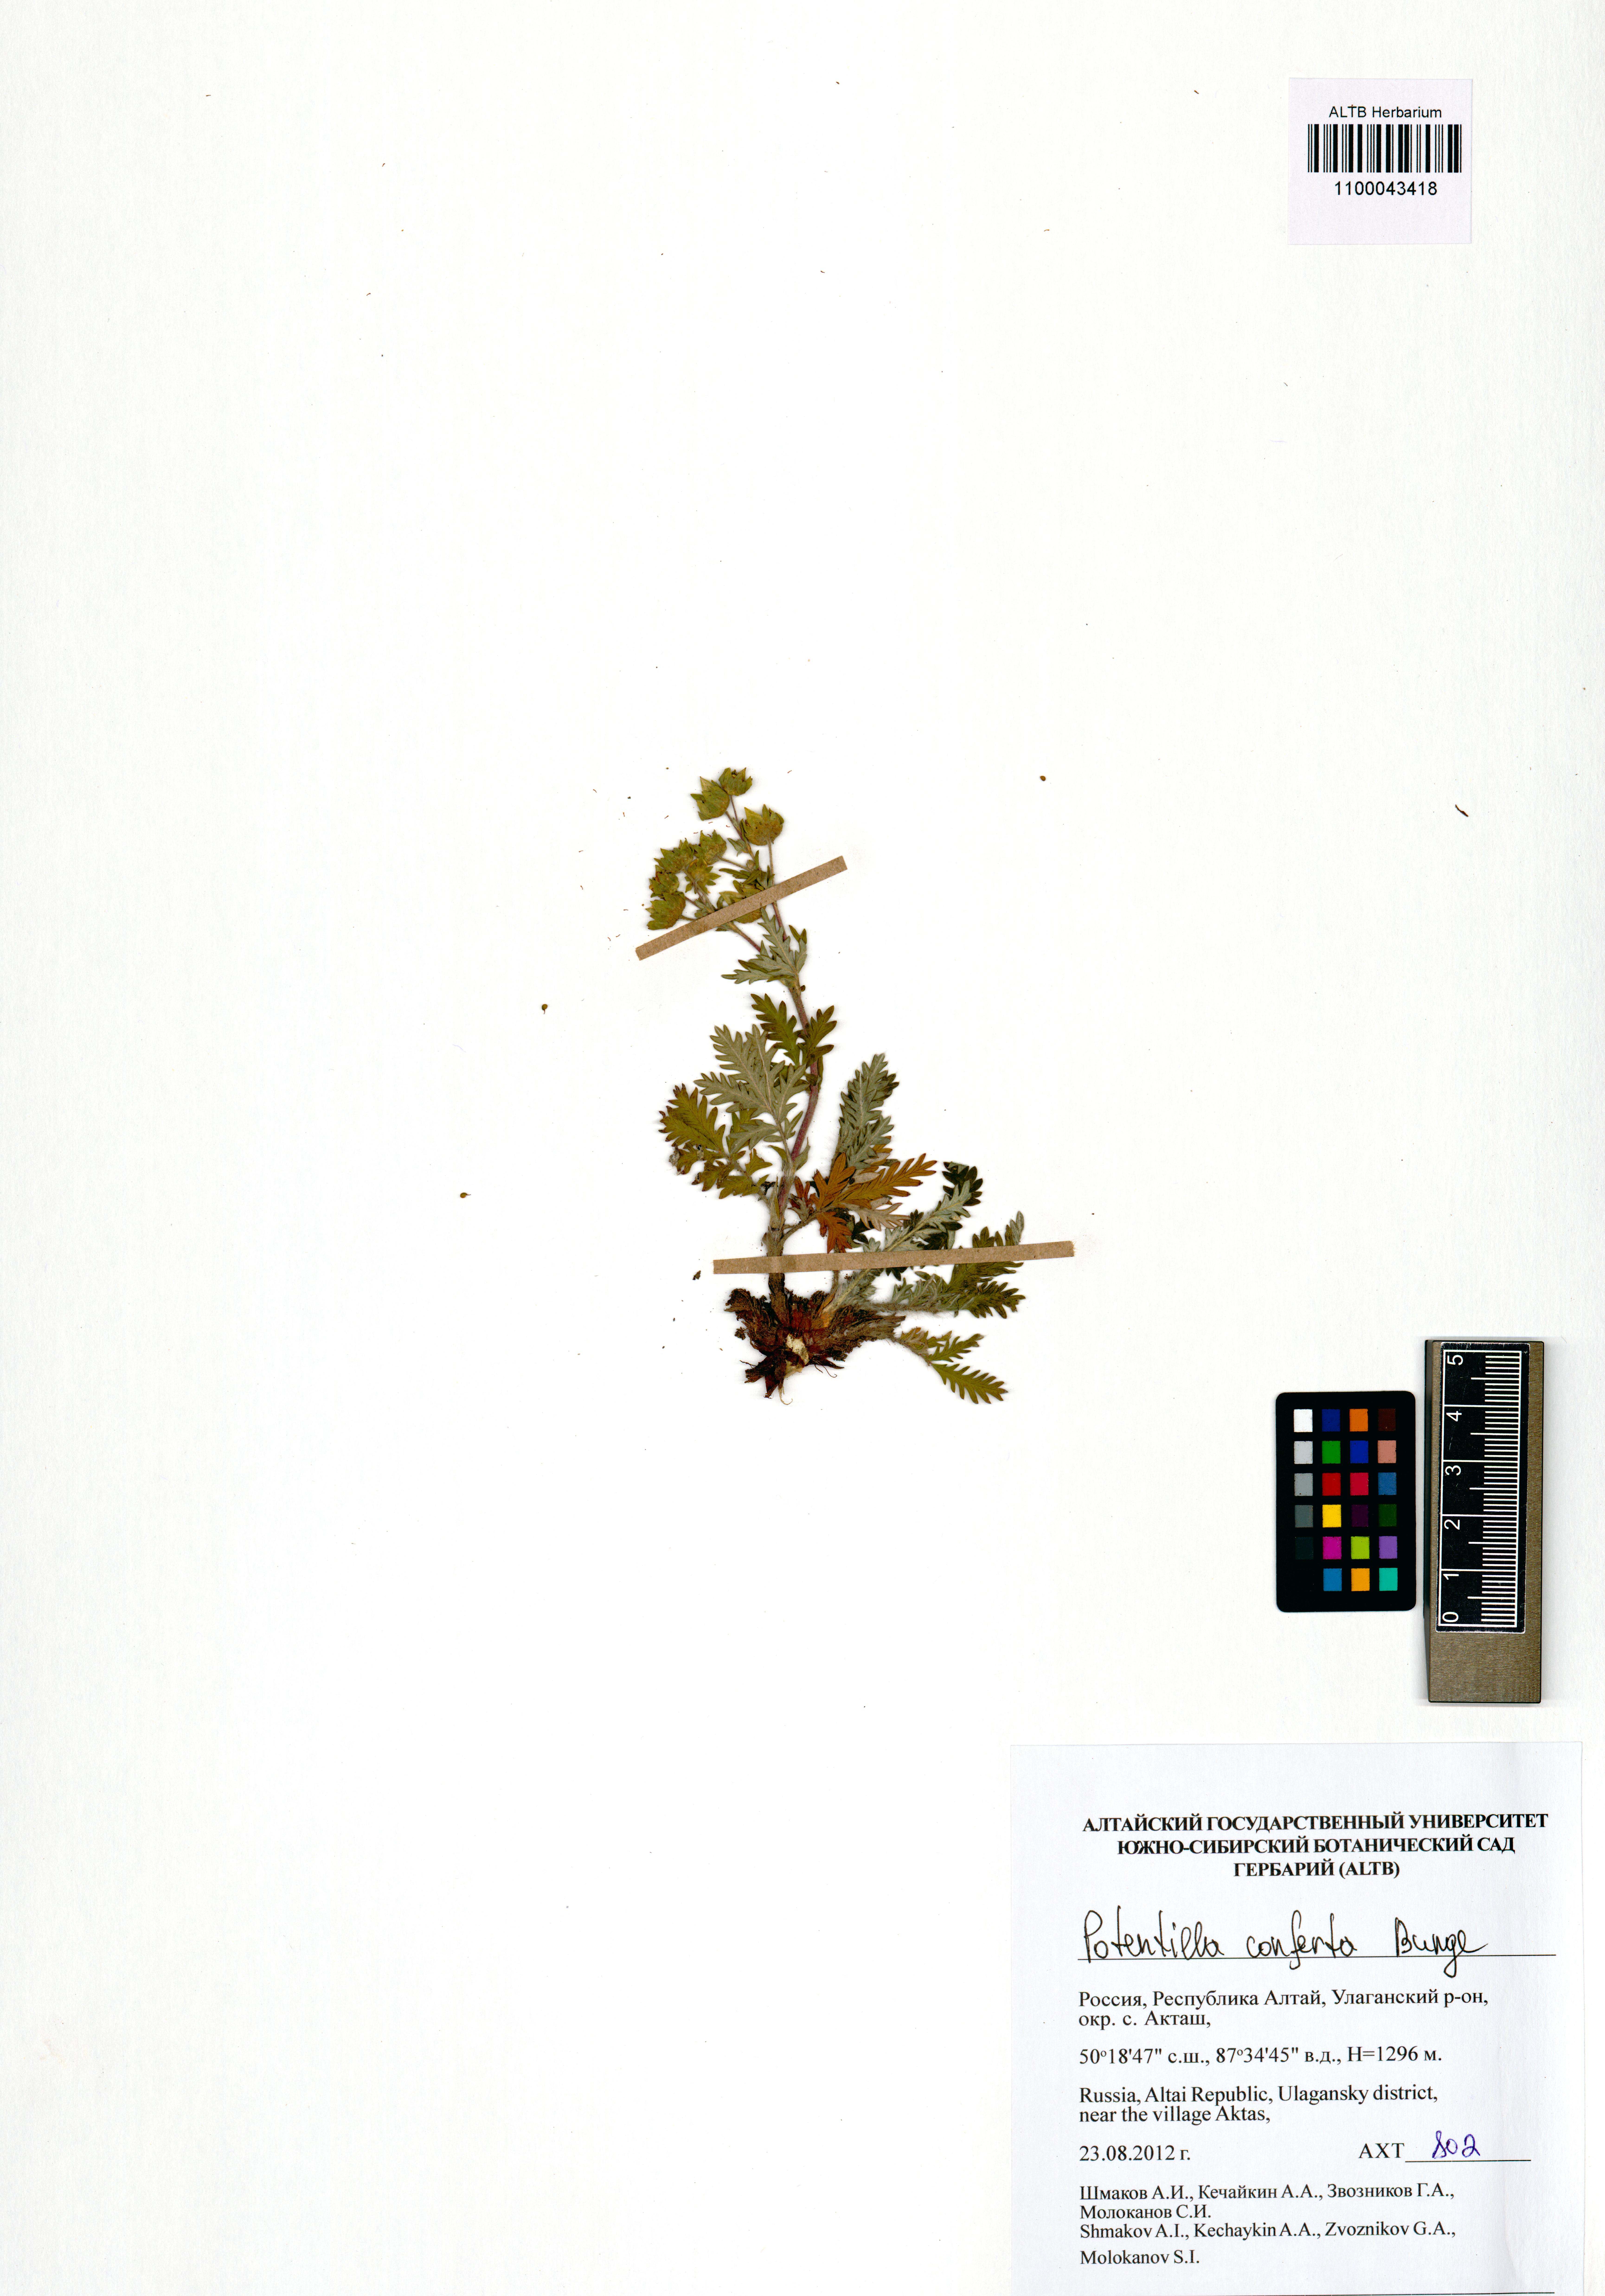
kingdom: Plantae
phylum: Tracheophyta
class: Magnoliopsida
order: Rosales
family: Rosaceae
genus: Potentilla
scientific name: Potentilla conferta
